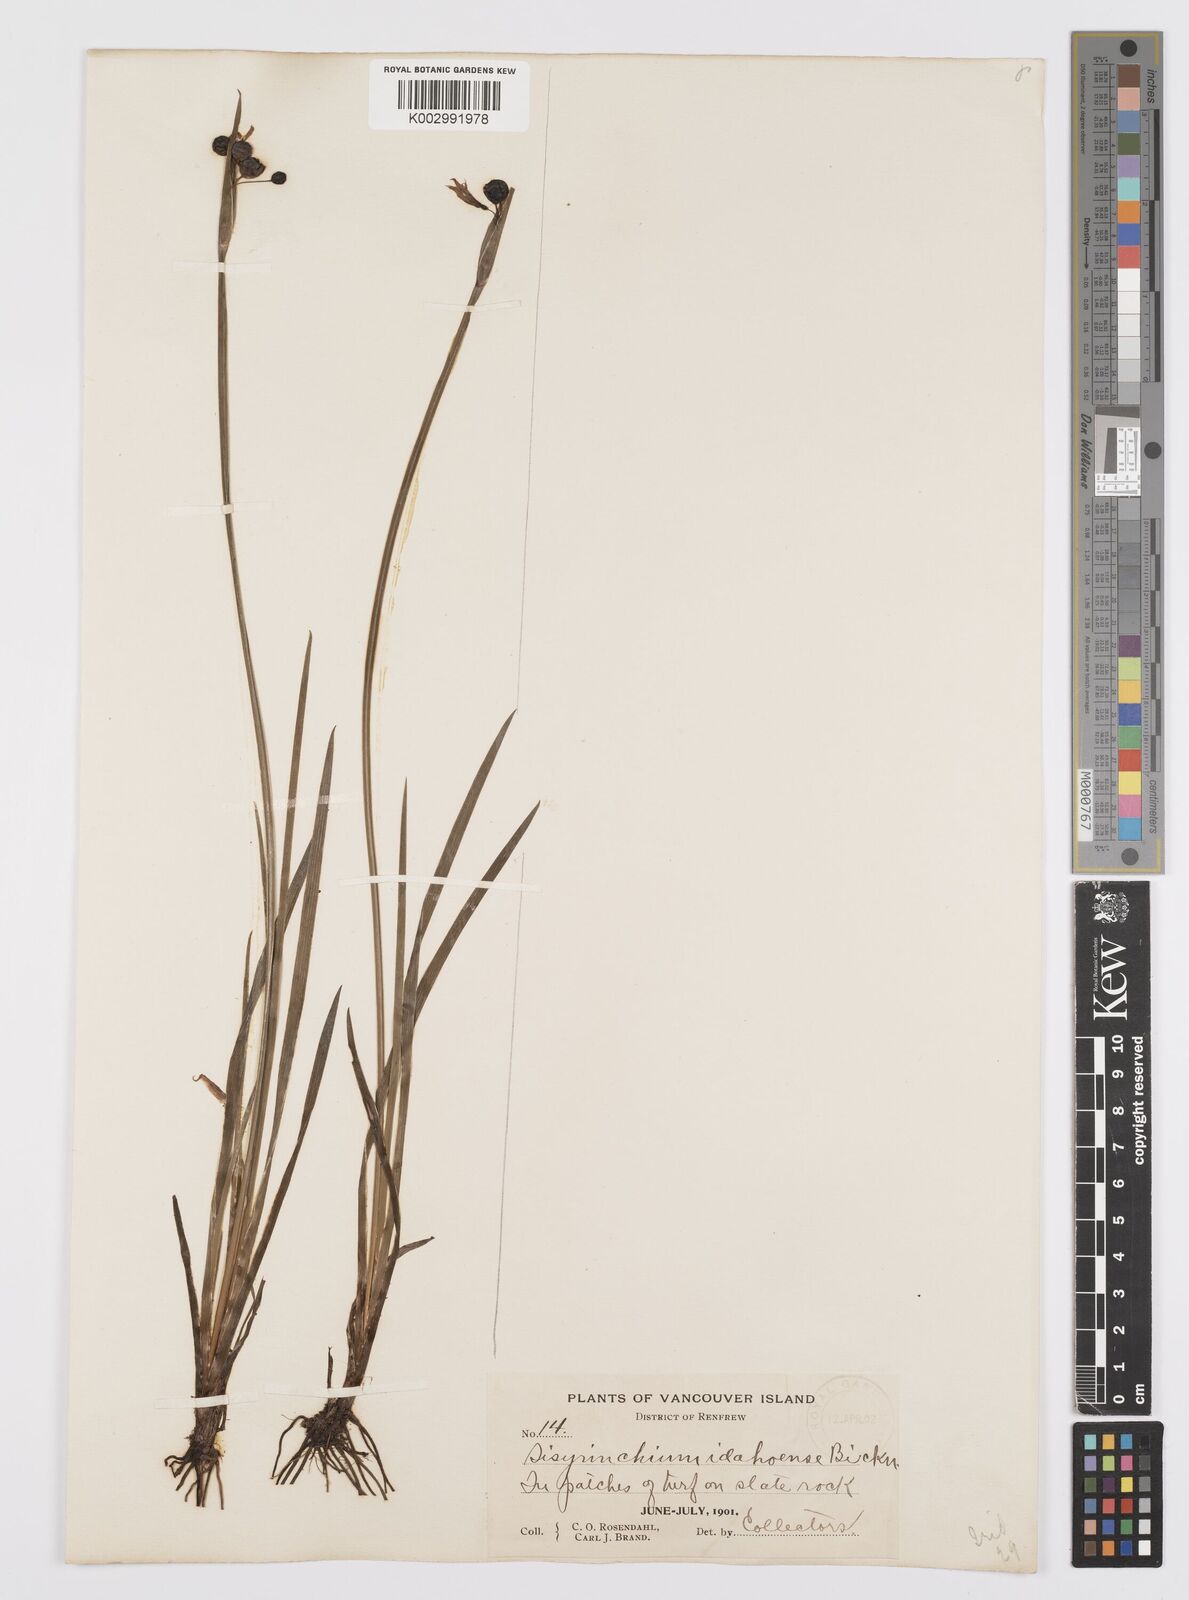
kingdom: Plantae
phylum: Tracheophyta
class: Liliopsida
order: Asparagales
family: Iridaceae
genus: Sisyrinchium
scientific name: Sisyrinchium idahoense
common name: Idaho blue-eyed-grass
